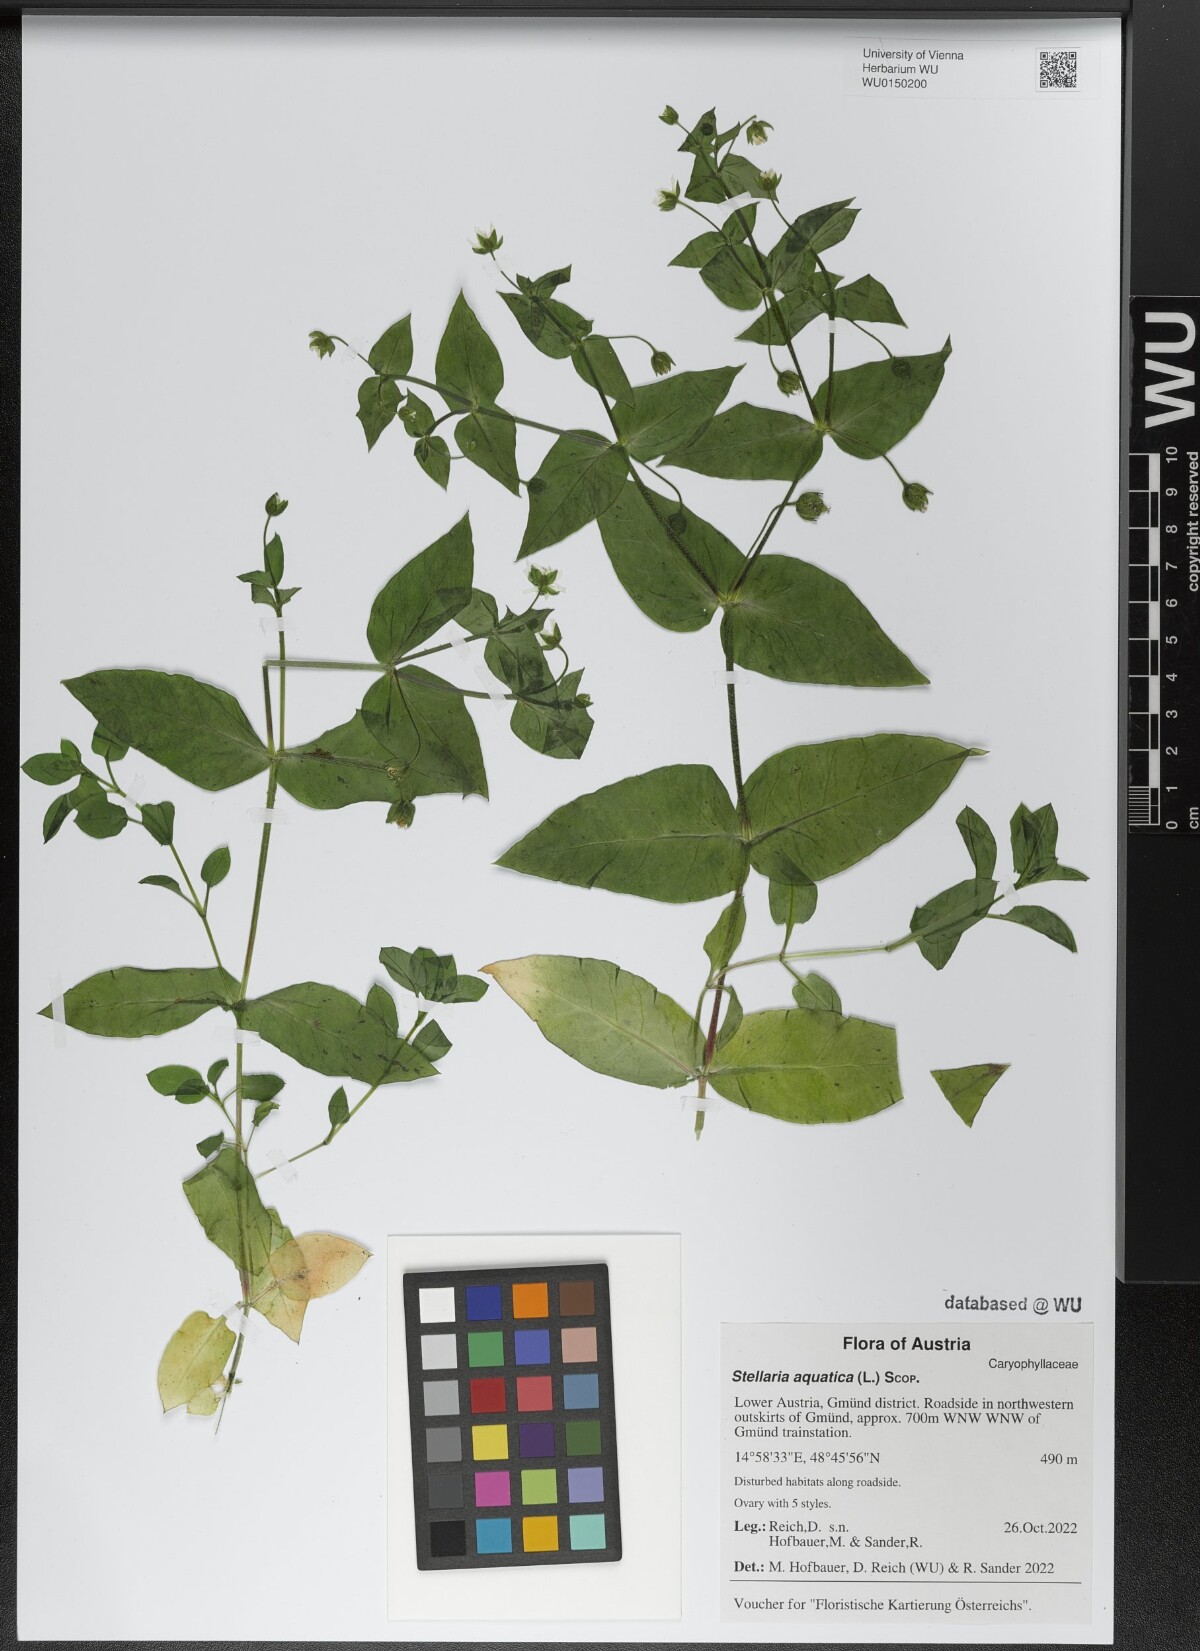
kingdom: Plantae
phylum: Tracheophyta
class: Magnoliopsida
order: Caryophyllales
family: Caryophyllaceae
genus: Stellaria
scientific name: Stellaria aquatica
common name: Water chickweed
